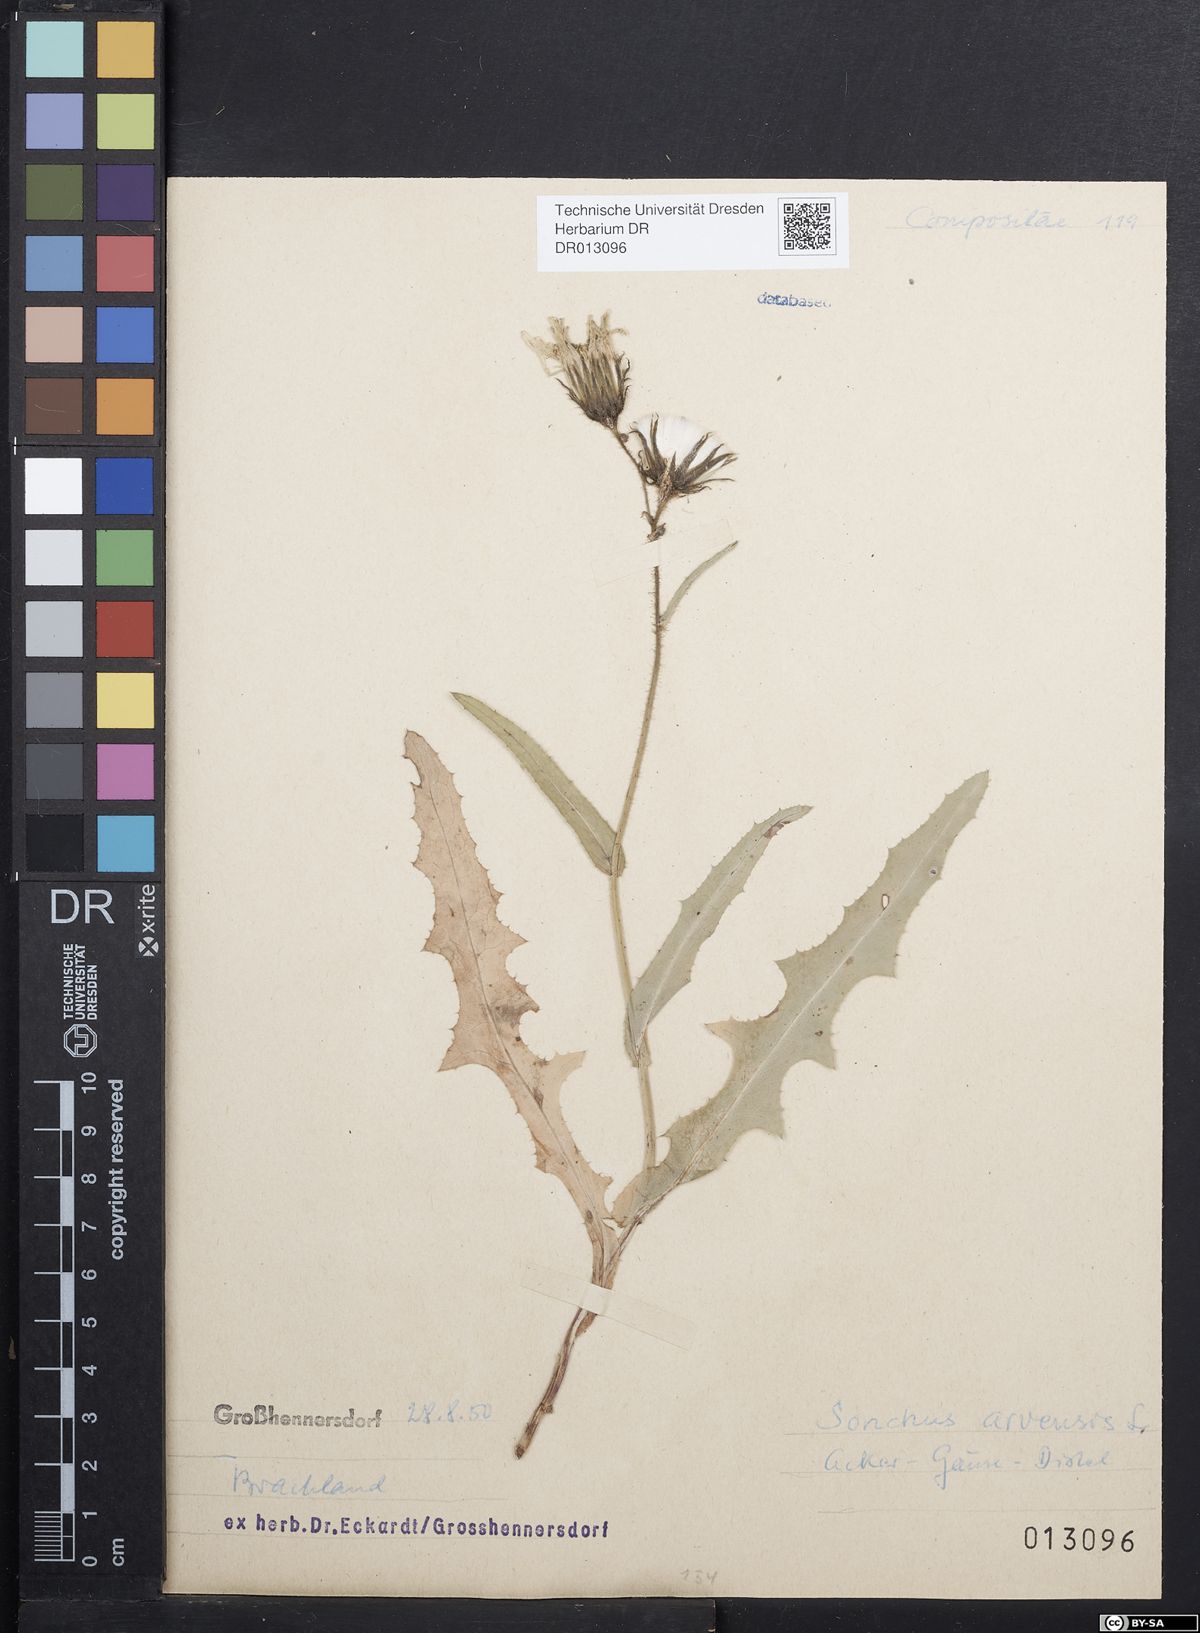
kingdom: Plantae
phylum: Tracheophyta
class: Magnoliopsida
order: Asterales
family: Asteraceae
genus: Sonchus
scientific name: Sonchus arvensis
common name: Perennial sow-thistle
